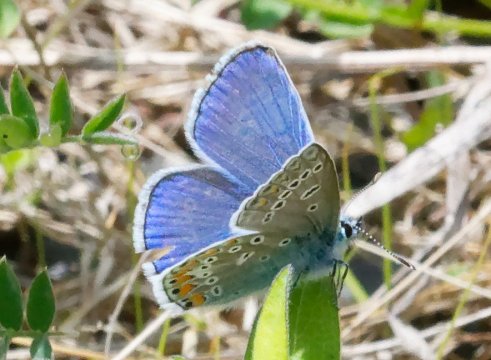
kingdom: Animalia
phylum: Arthropoda
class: Insecta
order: Lepidoptera
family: Lycaenidae
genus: Polyommatus
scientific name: Polyommatus icarus
